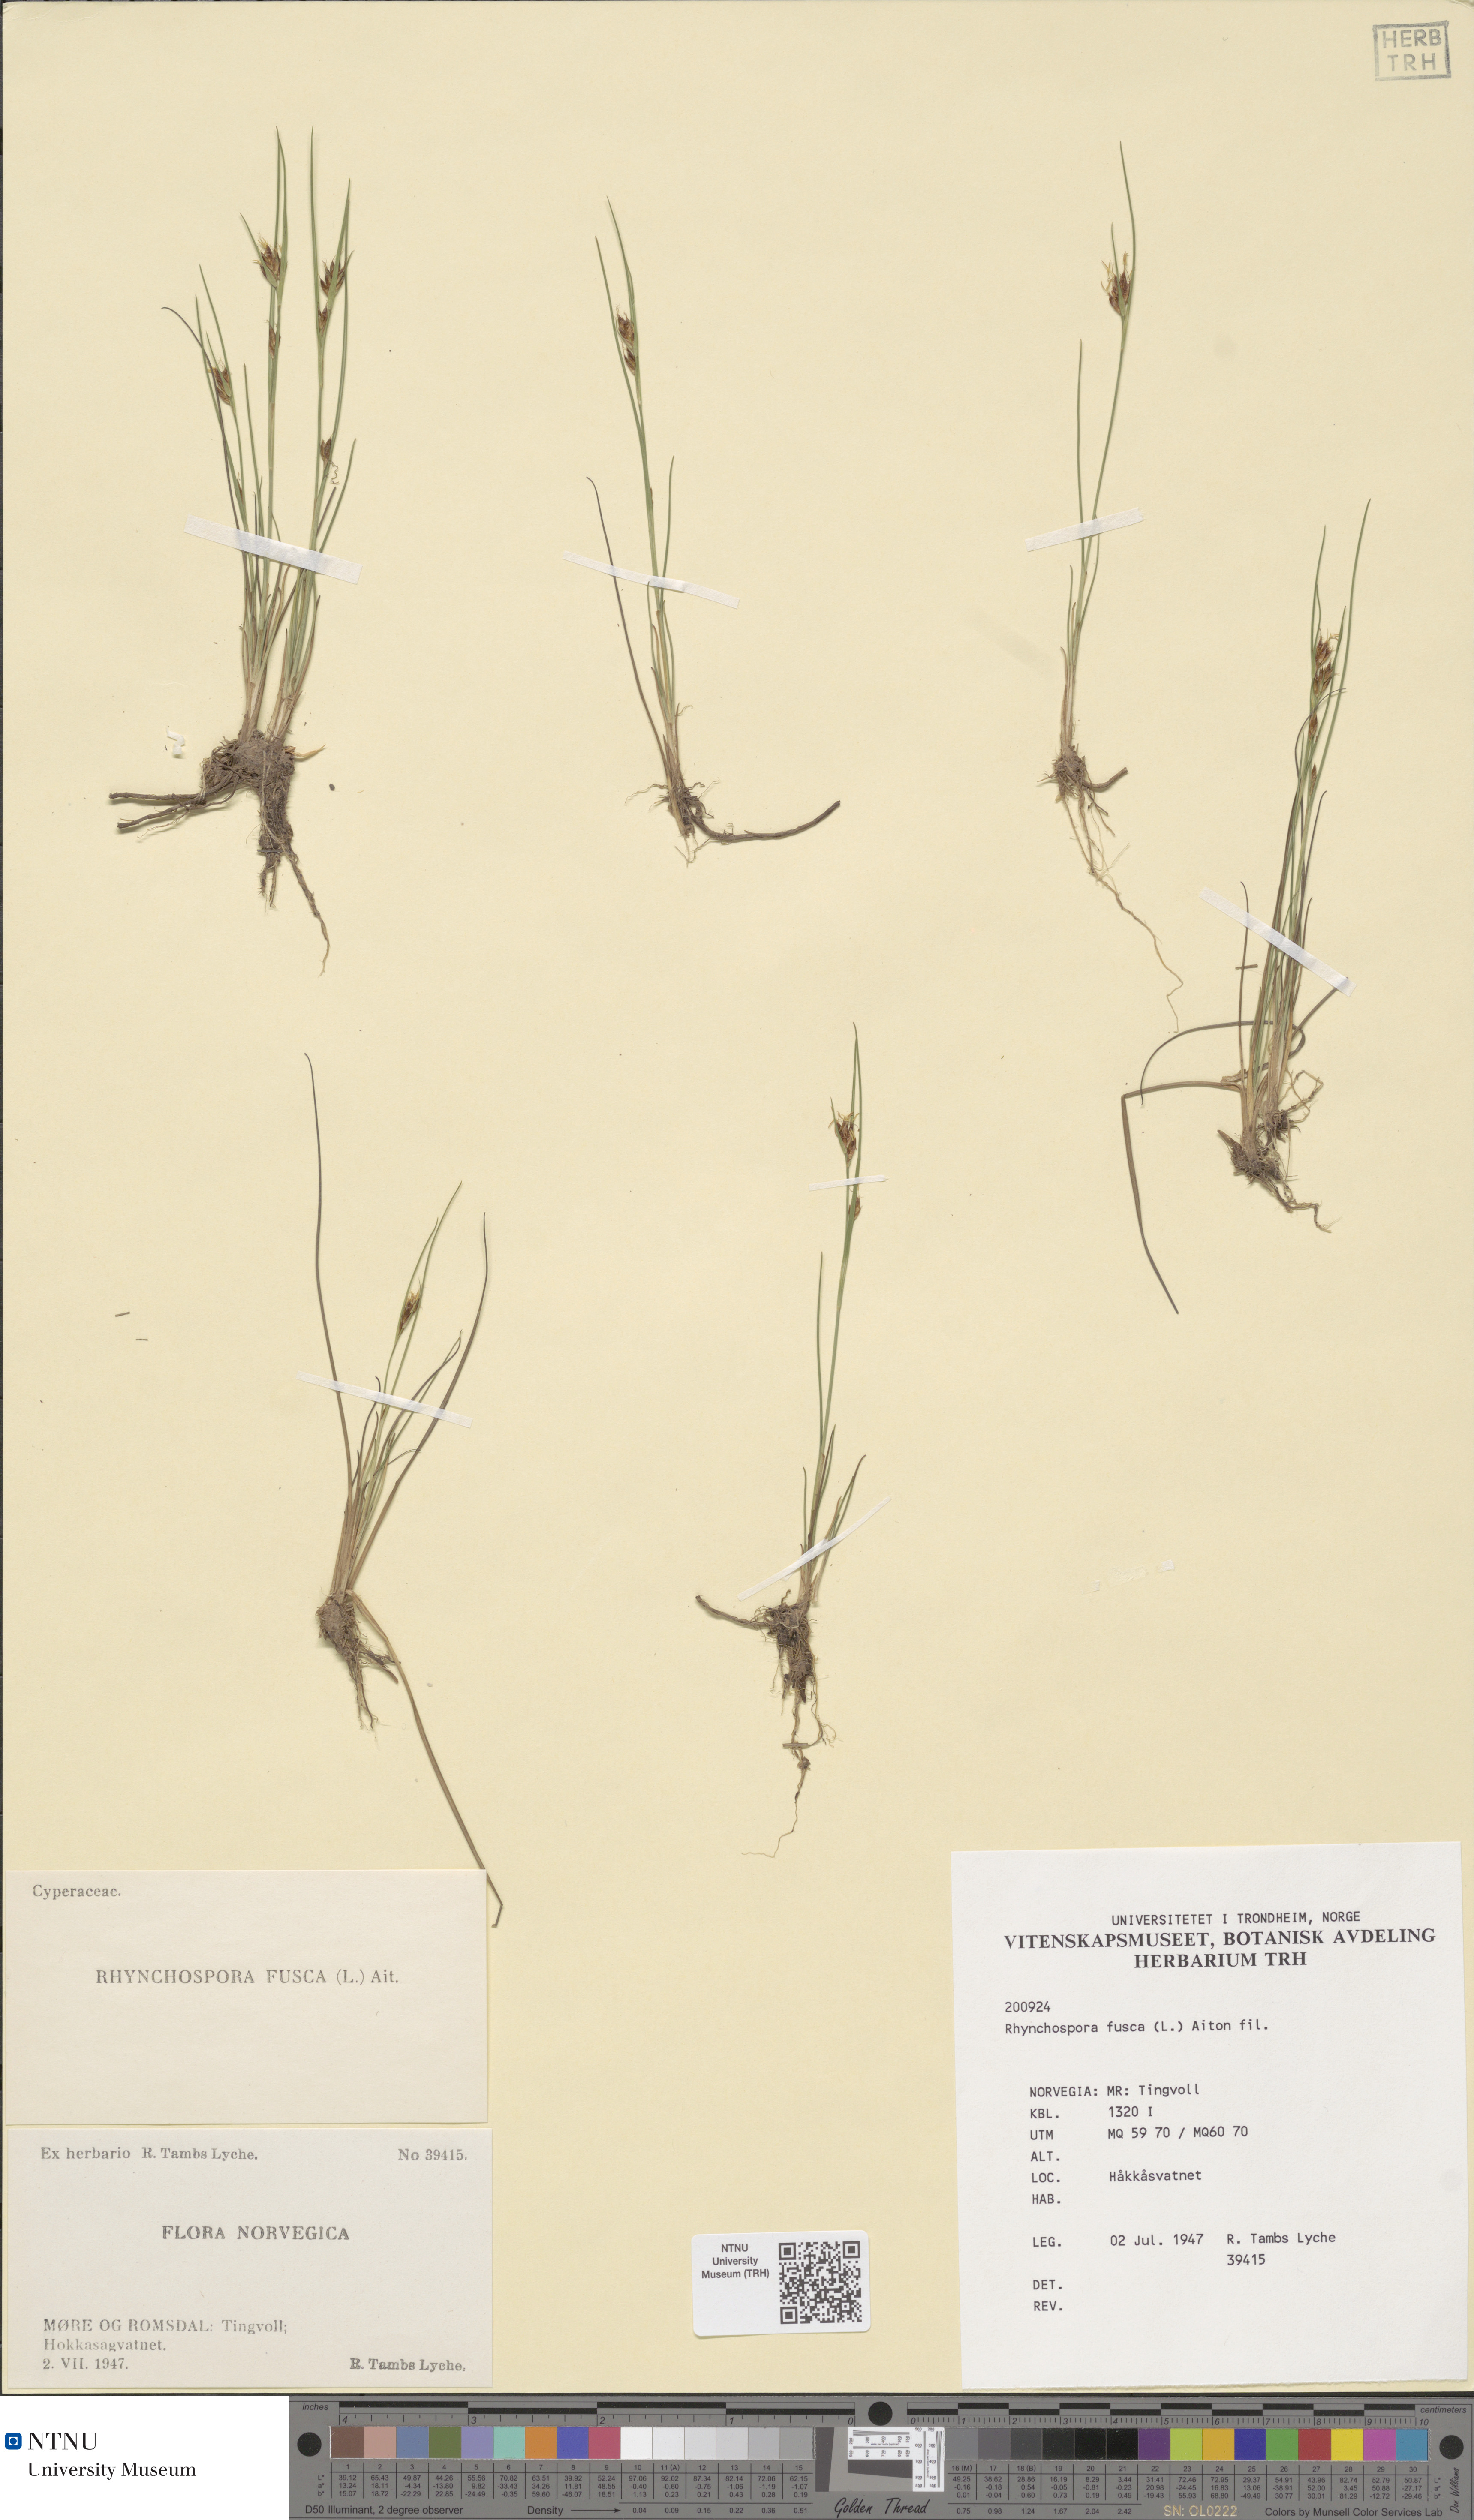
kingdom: Plantae
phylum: Tracheophyta
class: Liliopsida
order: Poales
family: Cyperaceae
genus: Rhynchospora
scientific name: Rhynchospora fusca
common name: Brown beak-sedge
